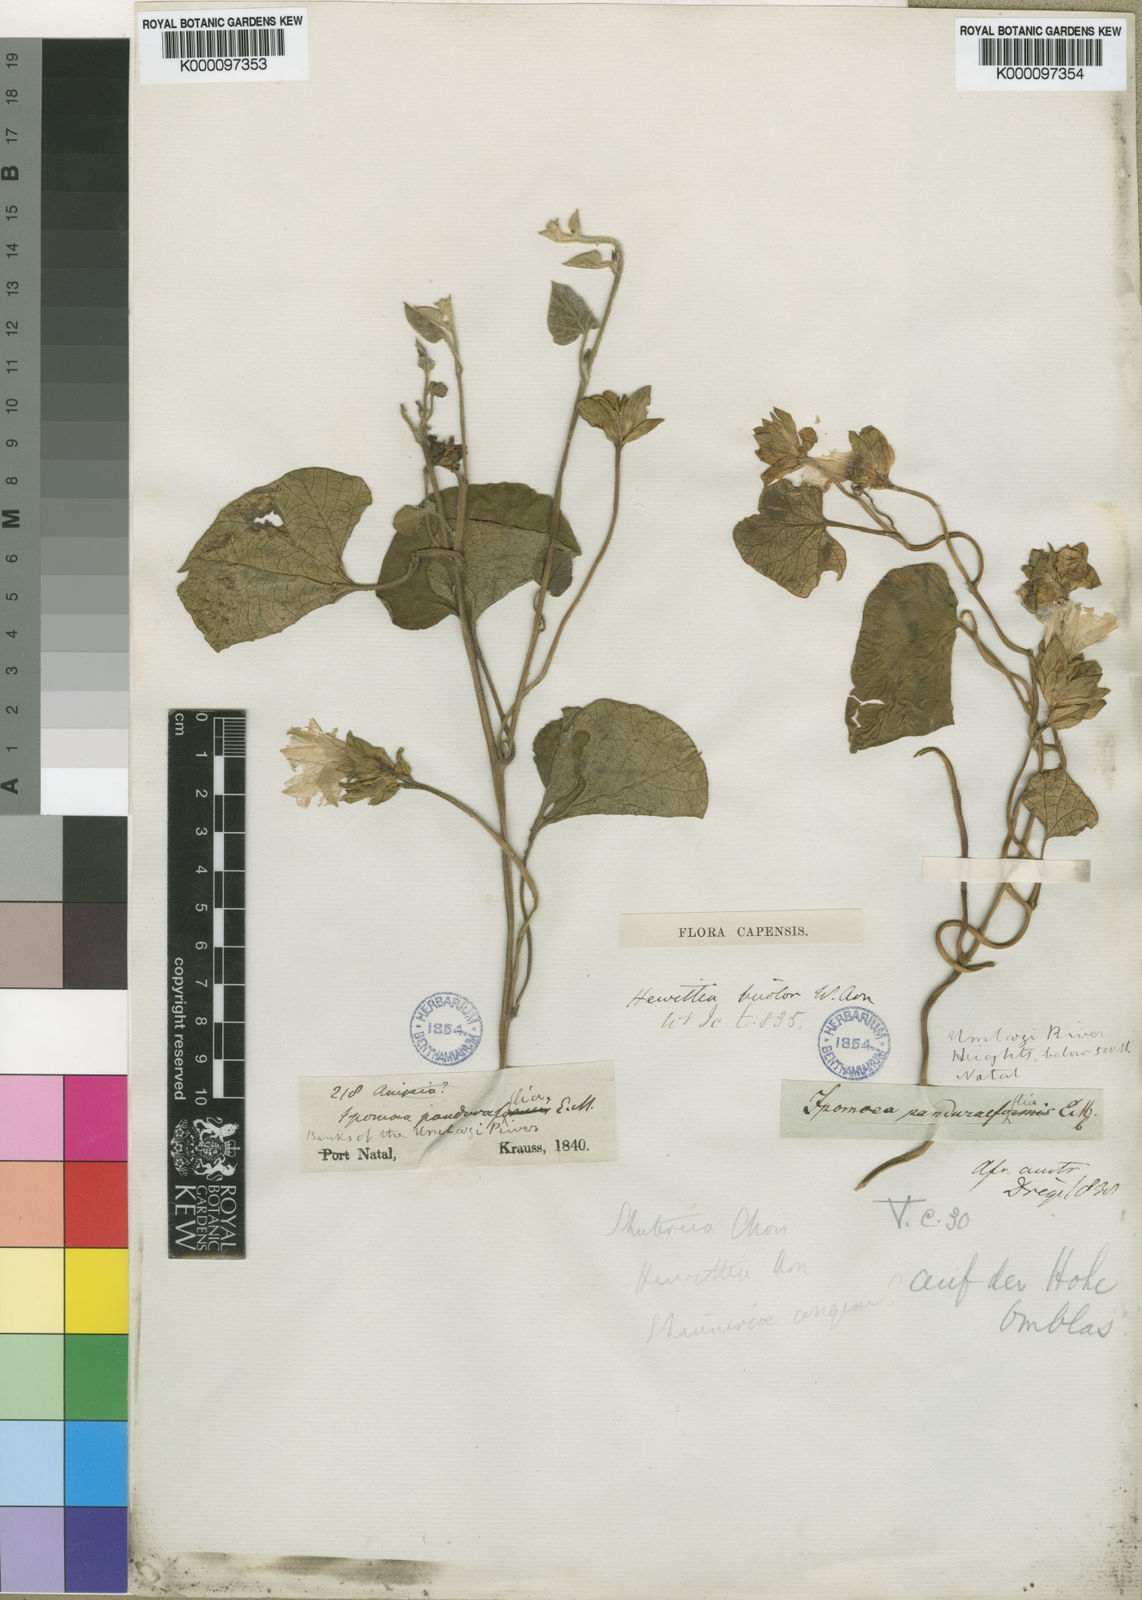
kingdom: Plantae
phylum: Tracheophyta
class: Magnoliopsida
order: Solanales
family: Convolvulaceae
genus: Hewittia
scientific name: Hewittia malabarica
